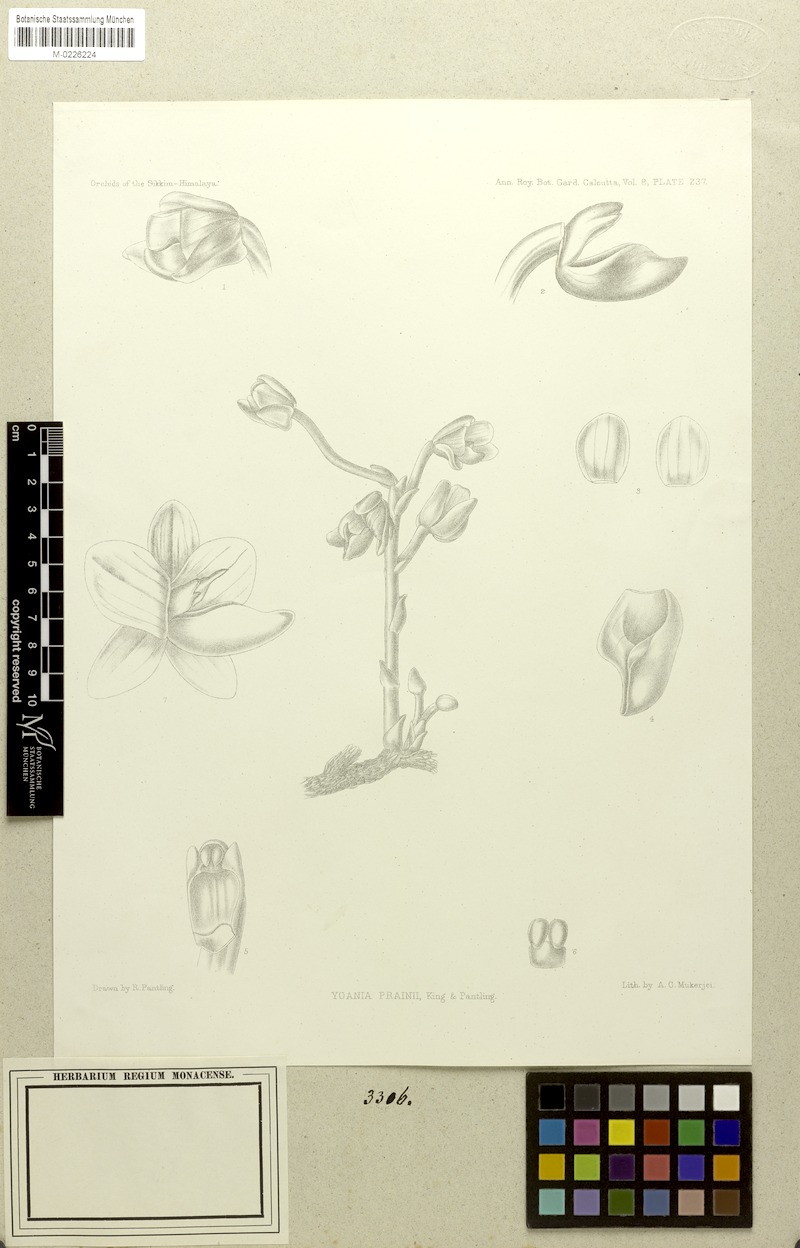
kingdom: Plantae
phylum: Tracheophyta
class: Liliopsida
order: Asparagales
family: Orchidaceae
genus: Yoania
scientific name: Yoania prainii
